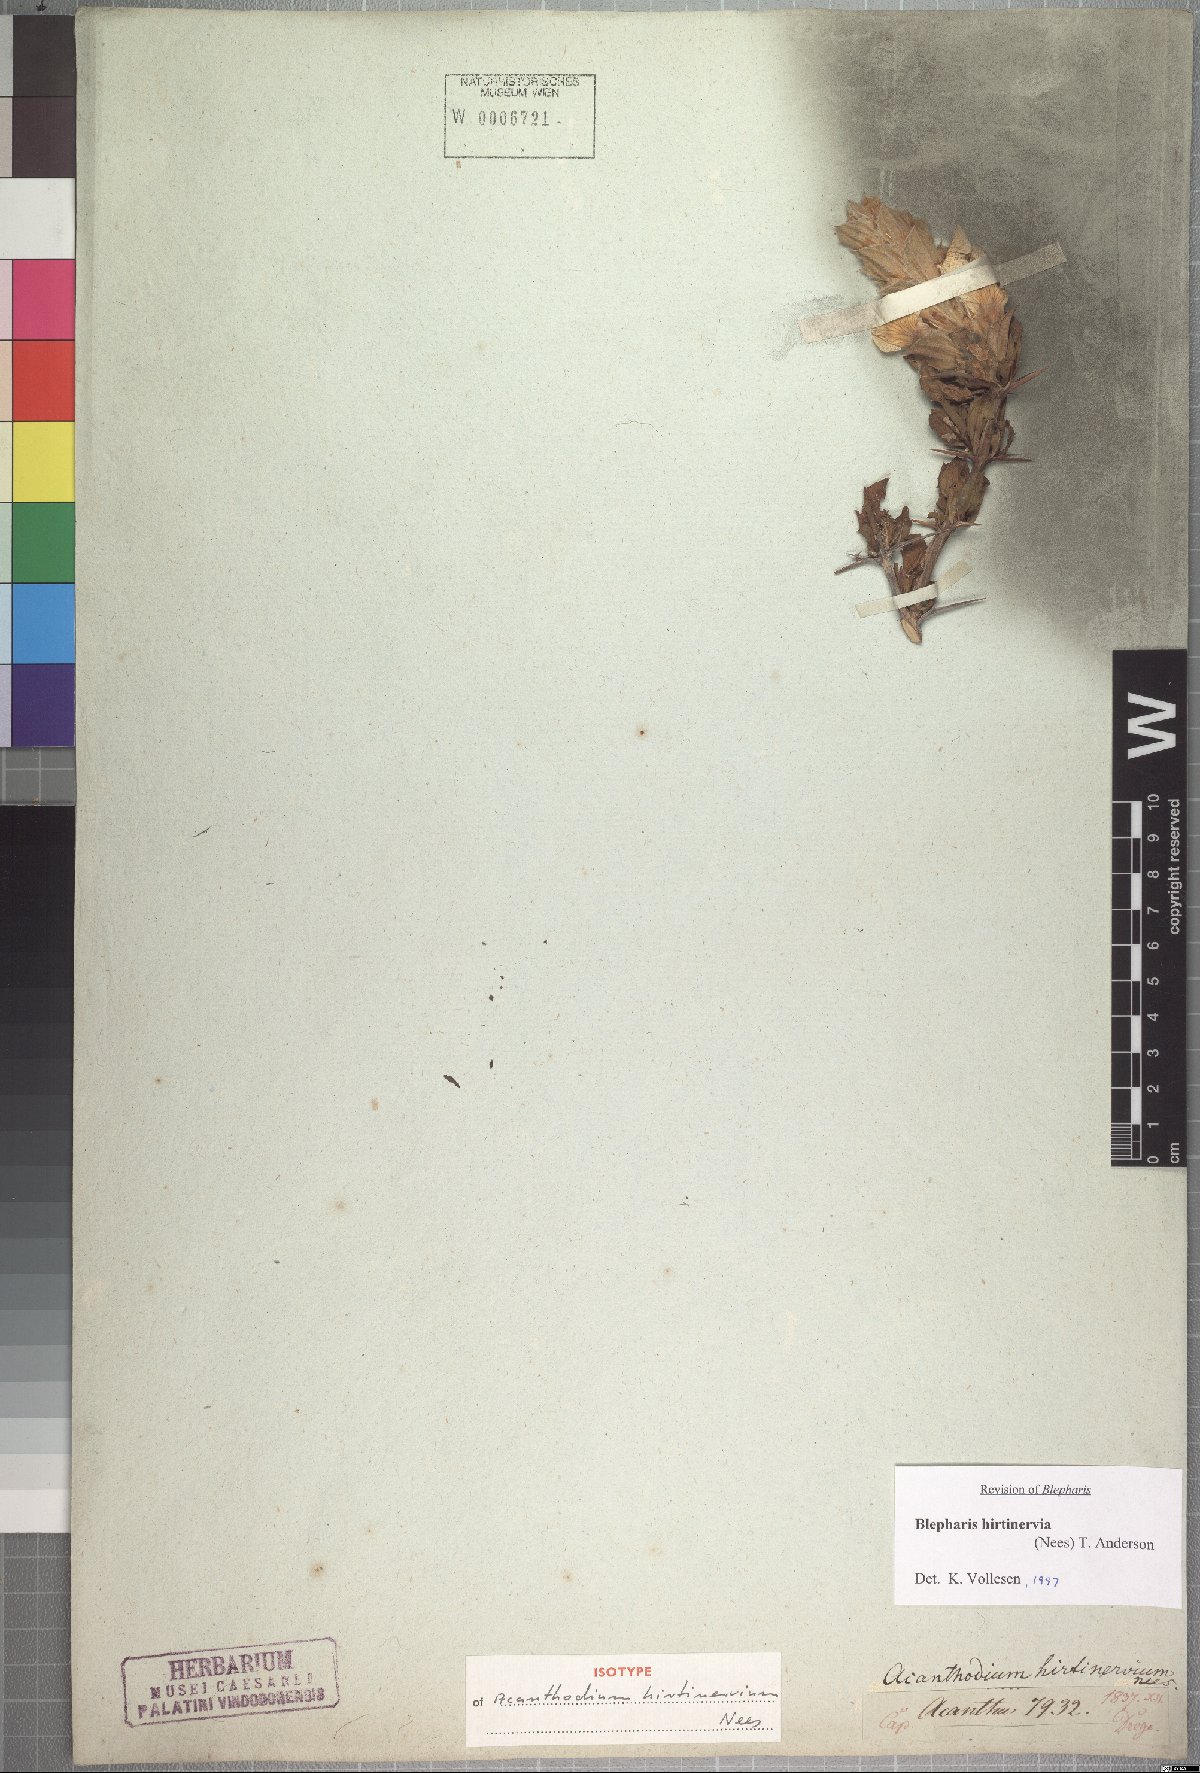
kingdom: Plantae
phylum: Tracheophyta
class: Magnoliopsida
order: Lamiales
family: Acanthaceae
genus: Blepharis
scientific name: Blepharis hirtinervia
